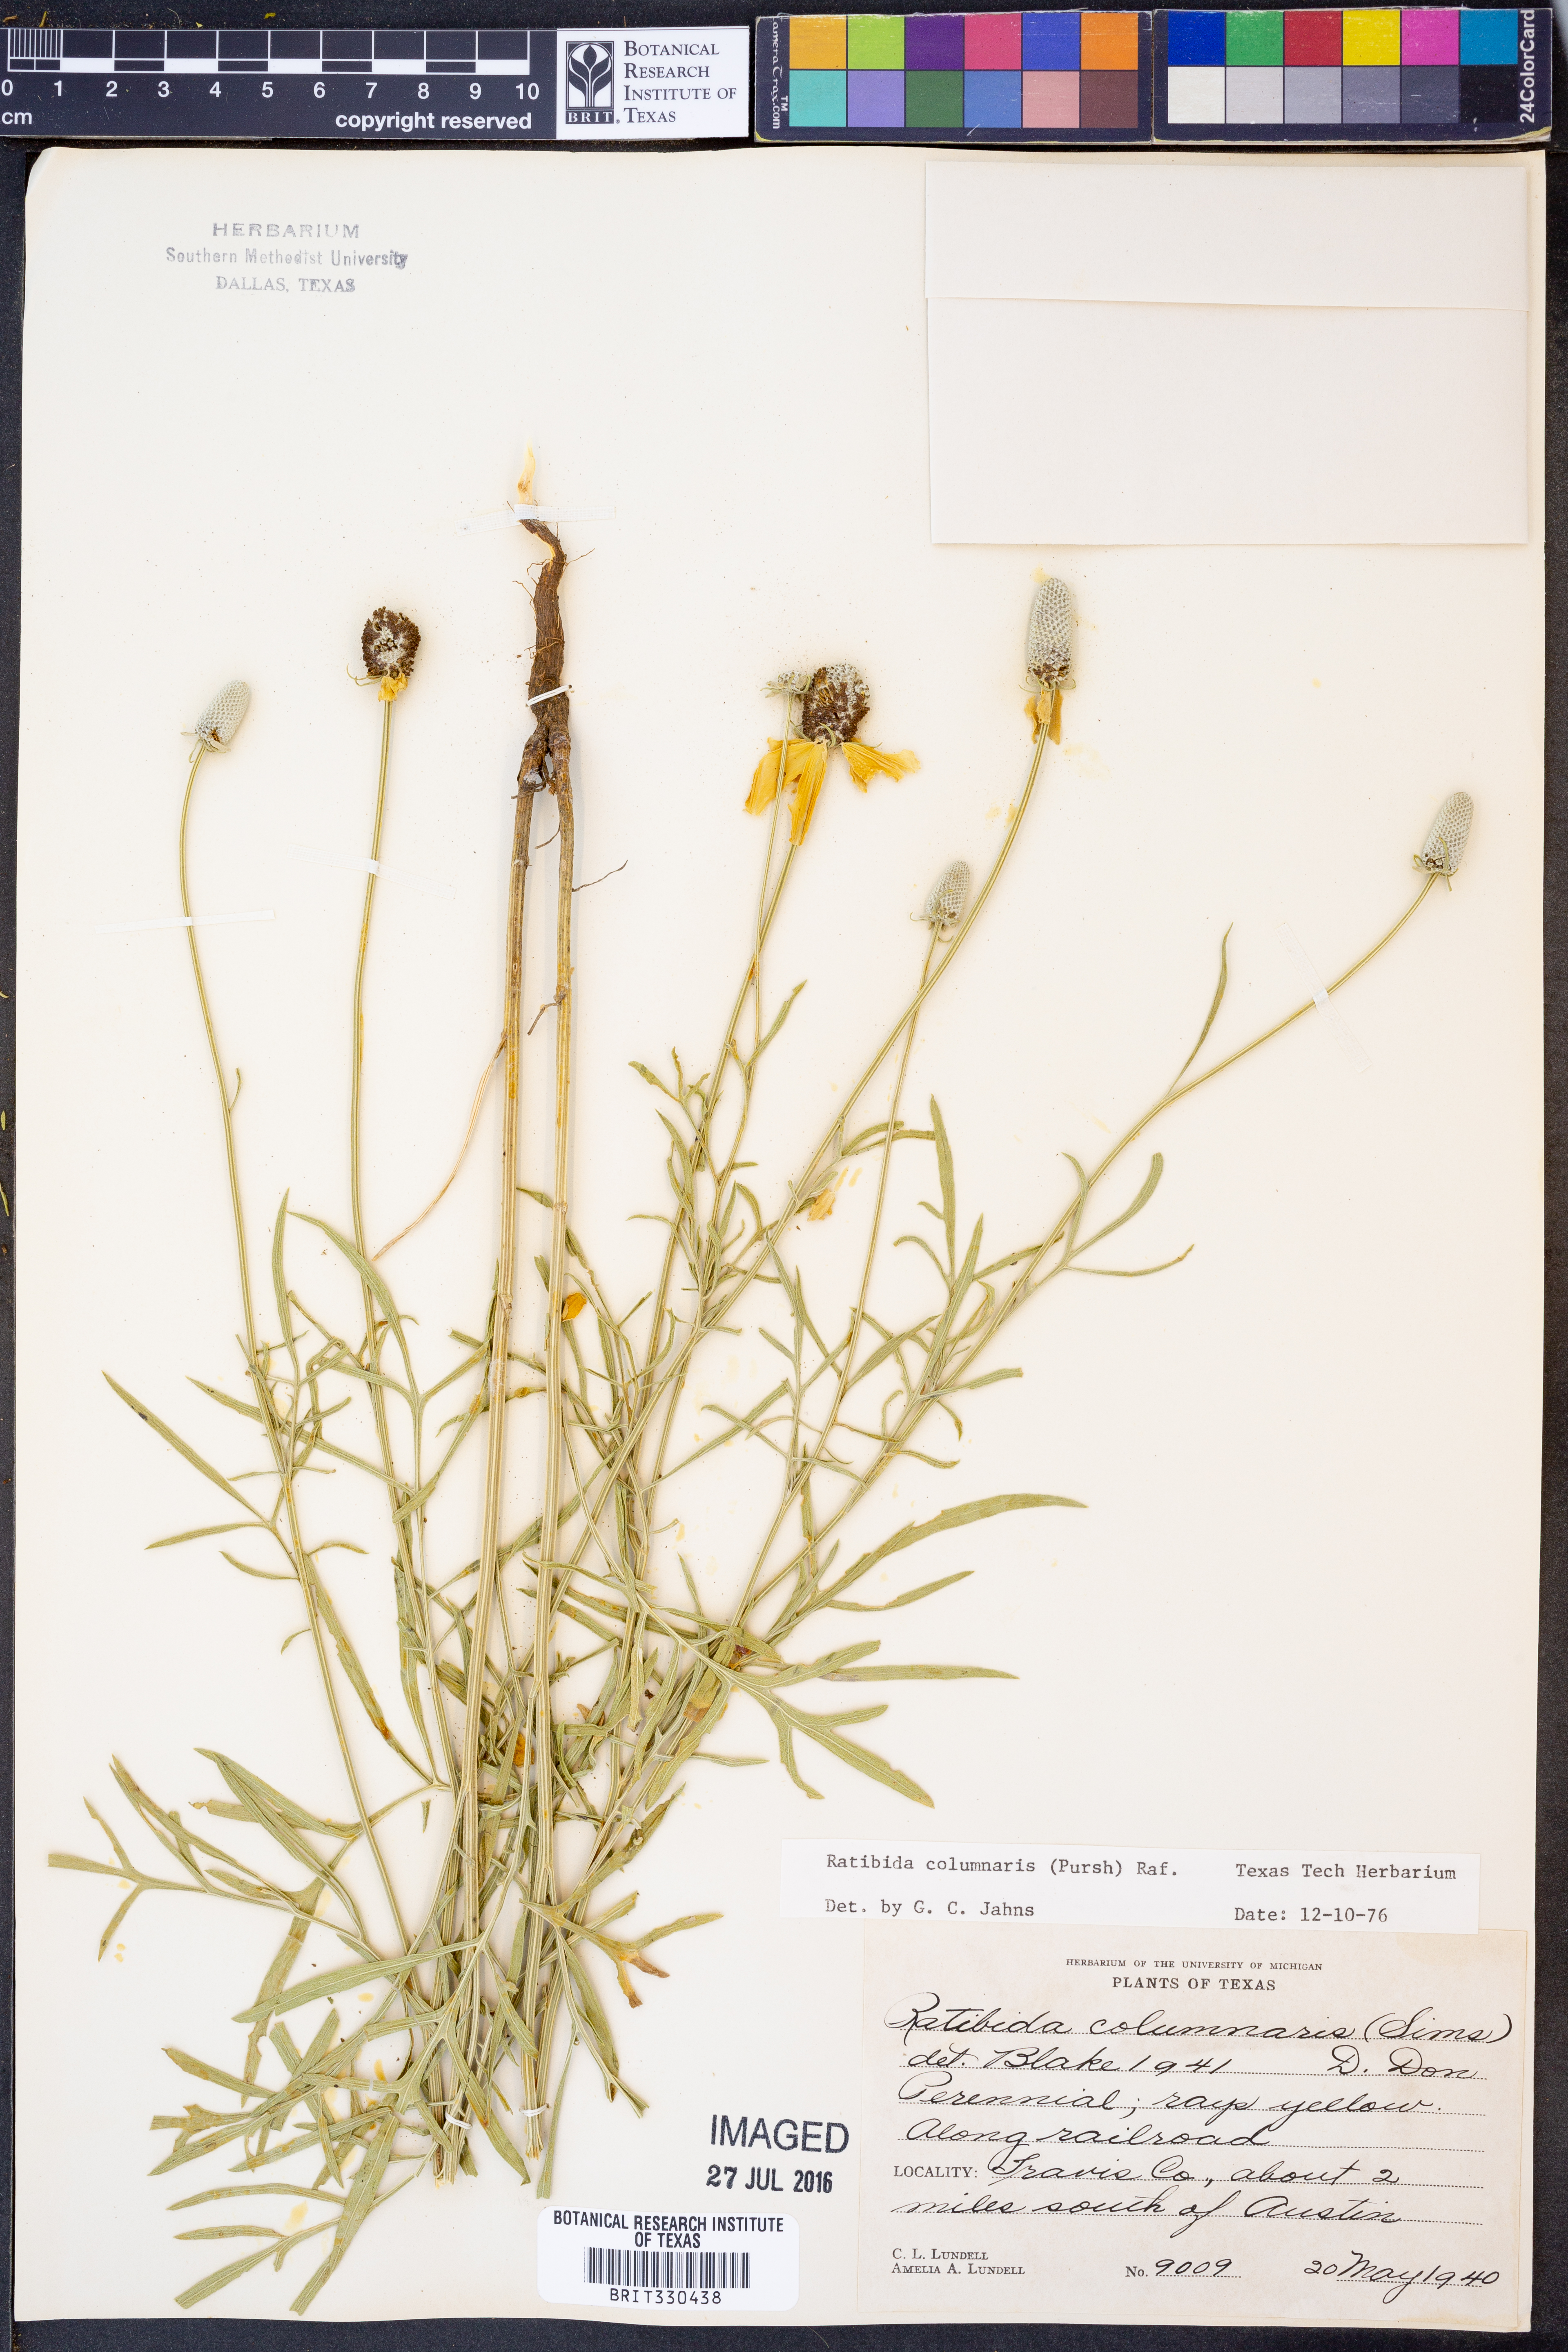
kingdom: Plantae
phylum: Tracheophyta
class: Magnoliopsida
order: Asterales
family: Asteraceae
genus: Ratibida
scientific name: Ratibida columnifera
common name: Prairie coneflower
